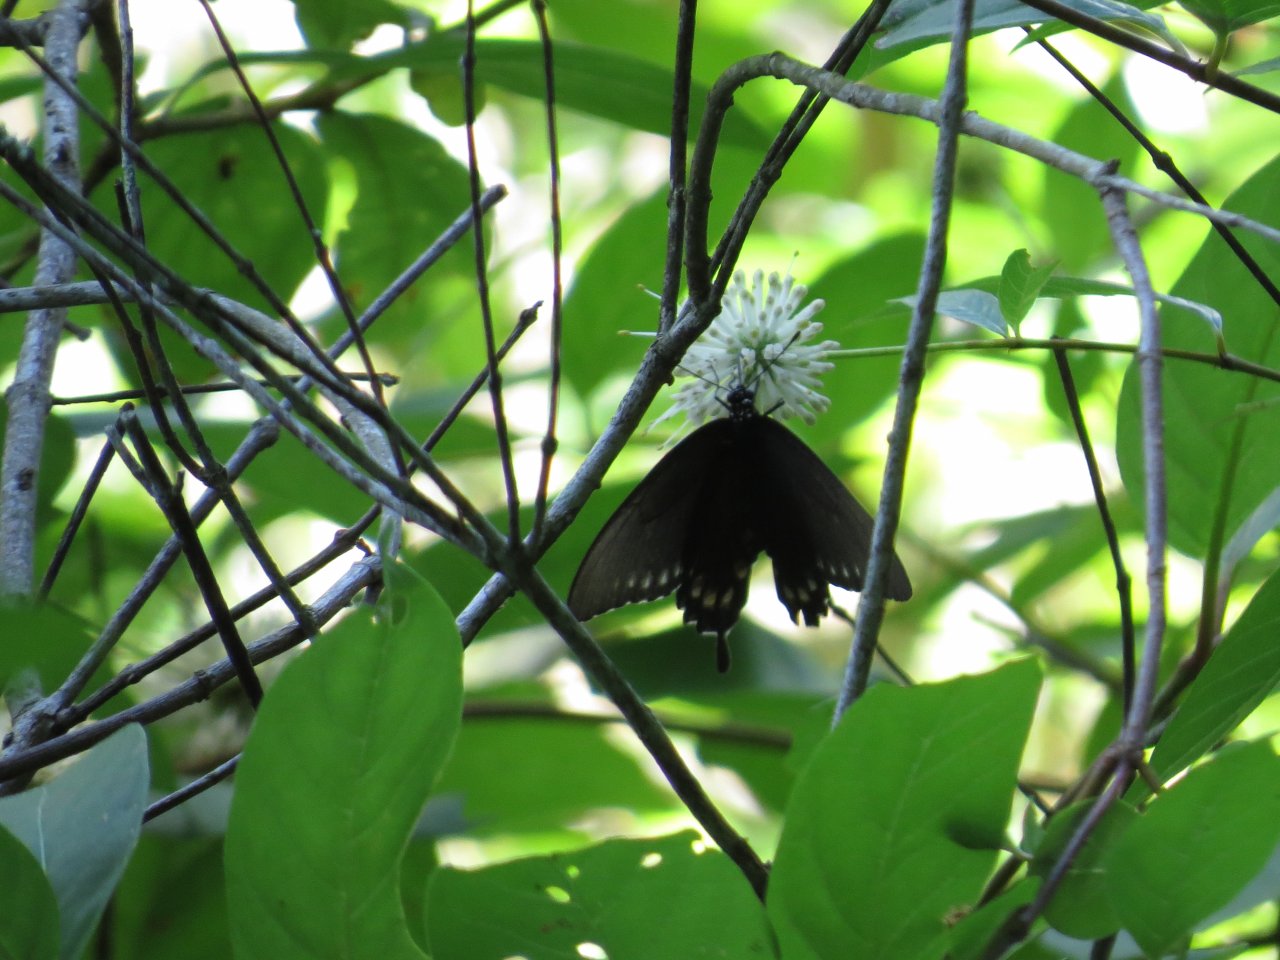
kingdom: Animalia
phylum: Arthropoda
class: Insecta
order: Lepidoptera
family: Papilionidae
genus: Battus
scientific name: Battus philenor
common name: Pipevine Swallowtail
